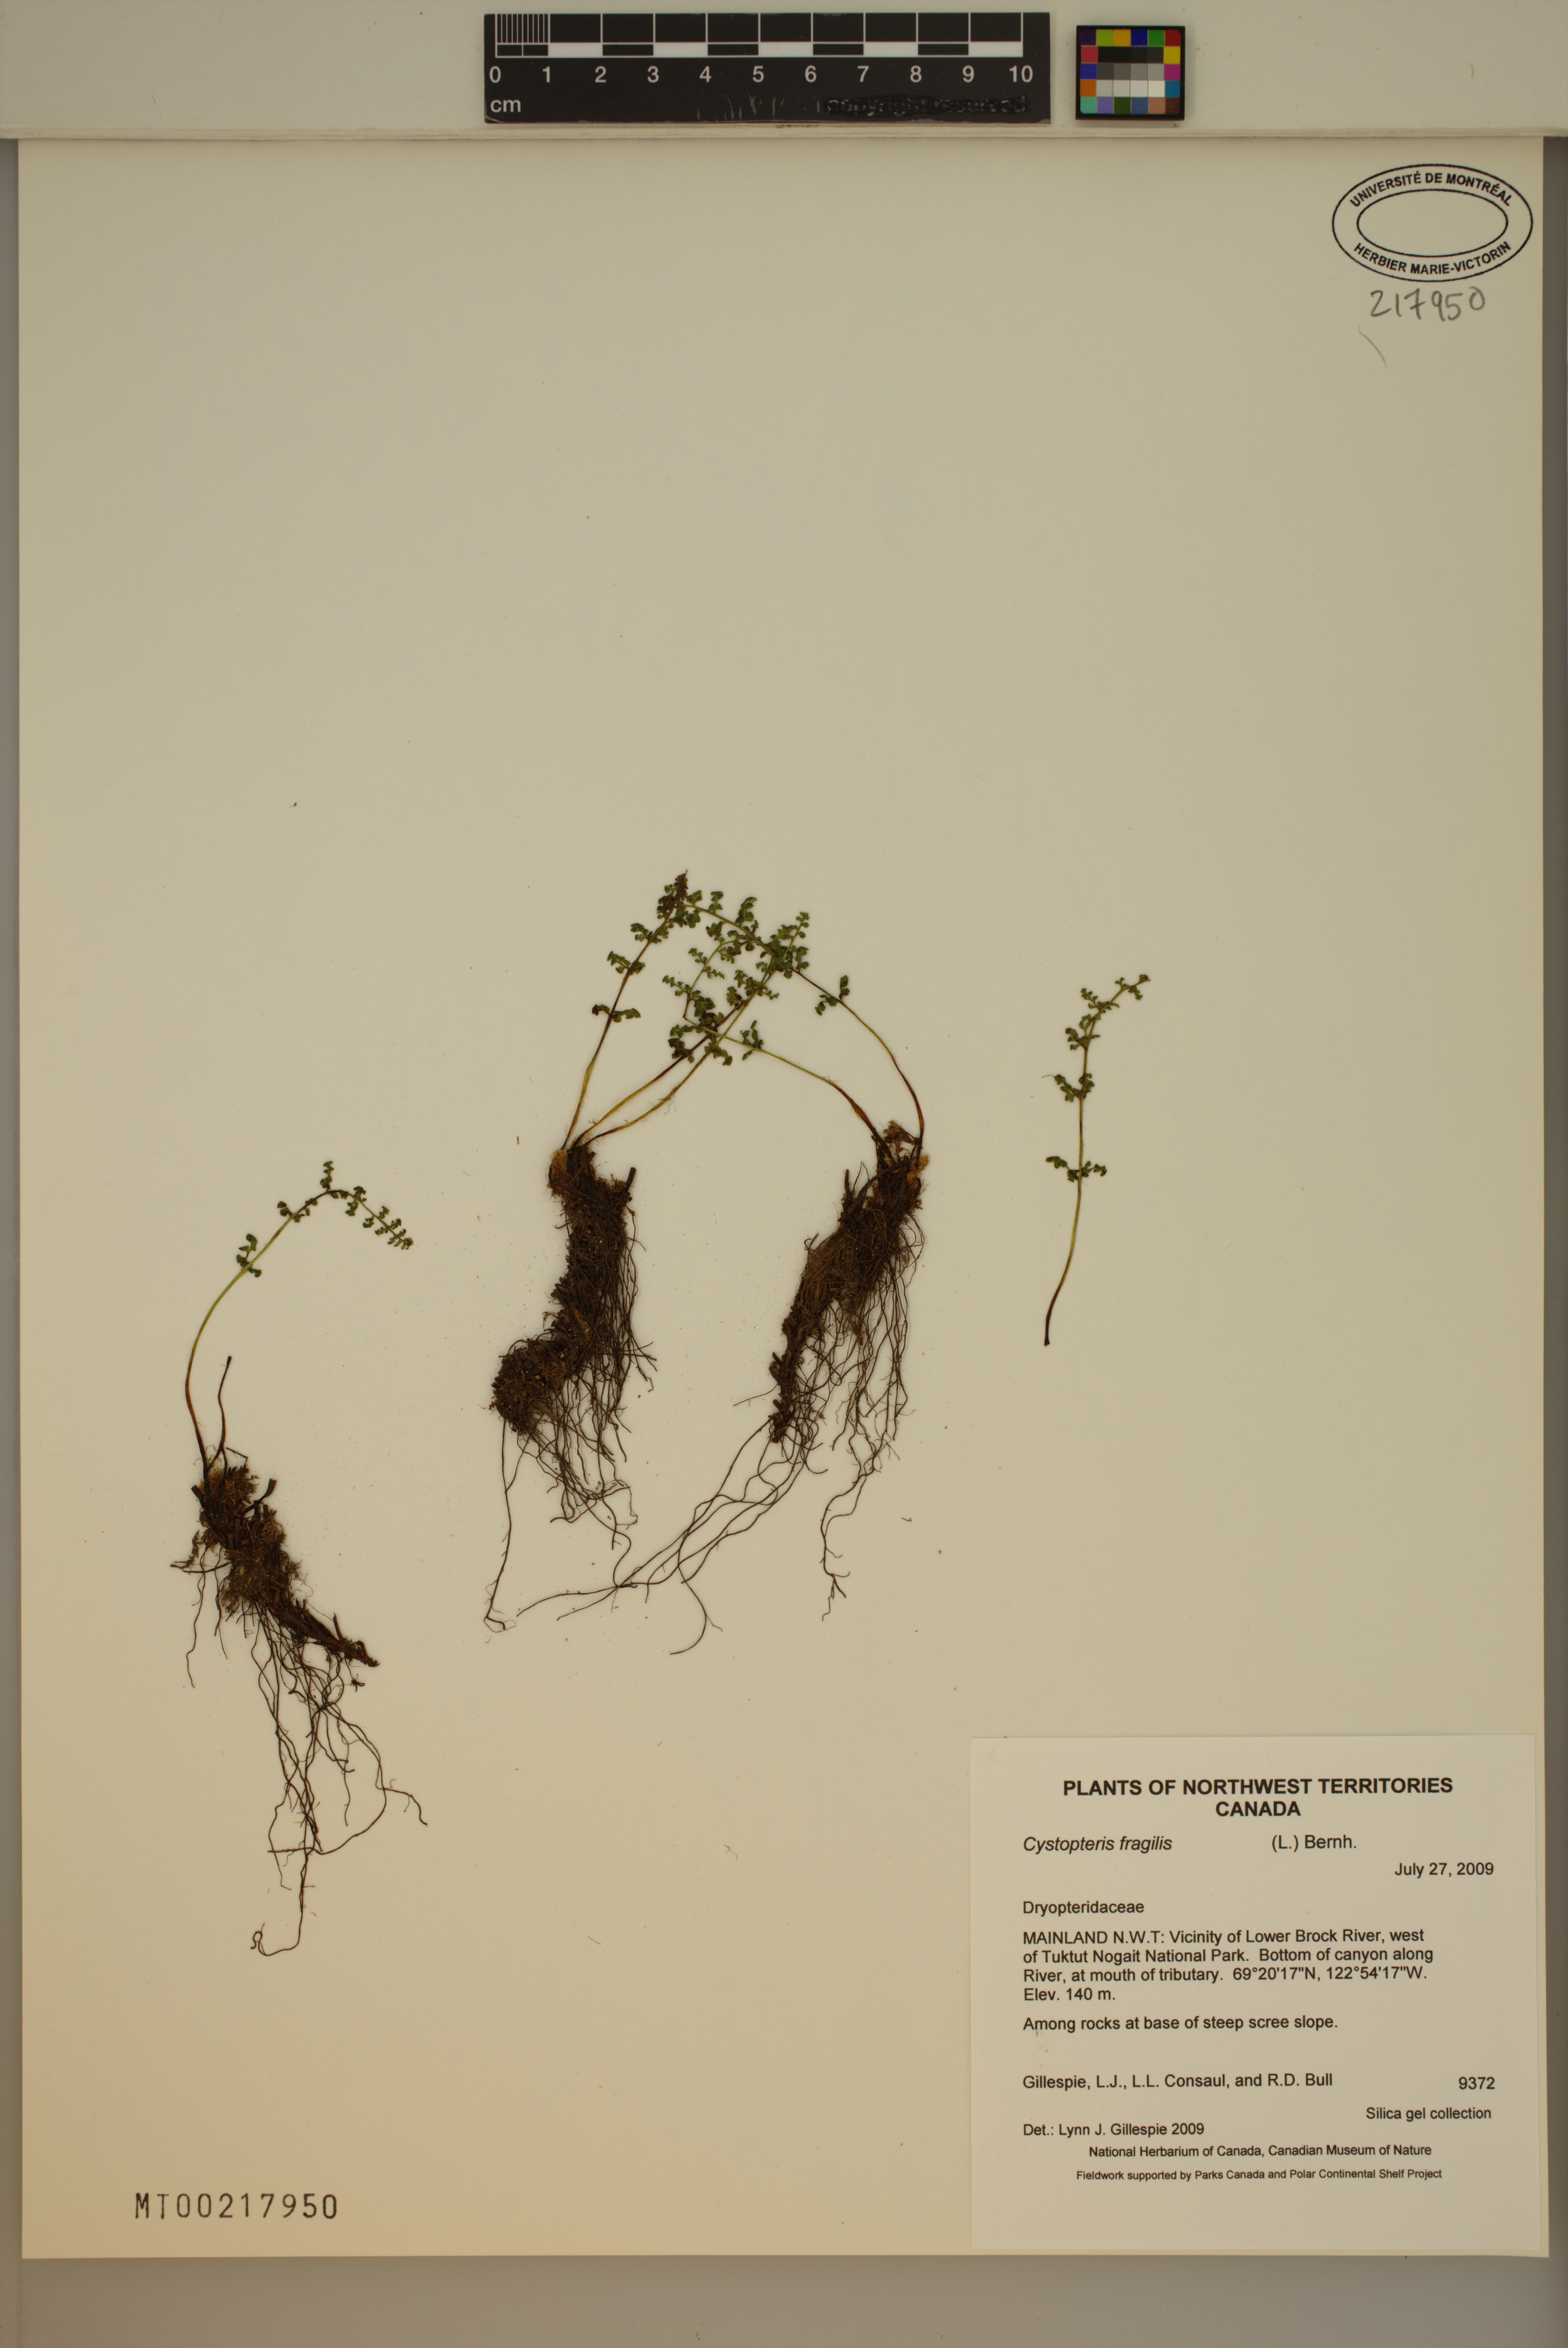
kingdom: Plantae
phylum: Tracheophyta
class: Polypodiopsida
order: Polypodiales
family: Cystopteridaceae
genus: Cystopteris
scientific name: Cystopteris fragilis
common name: Brittle bladder fern
